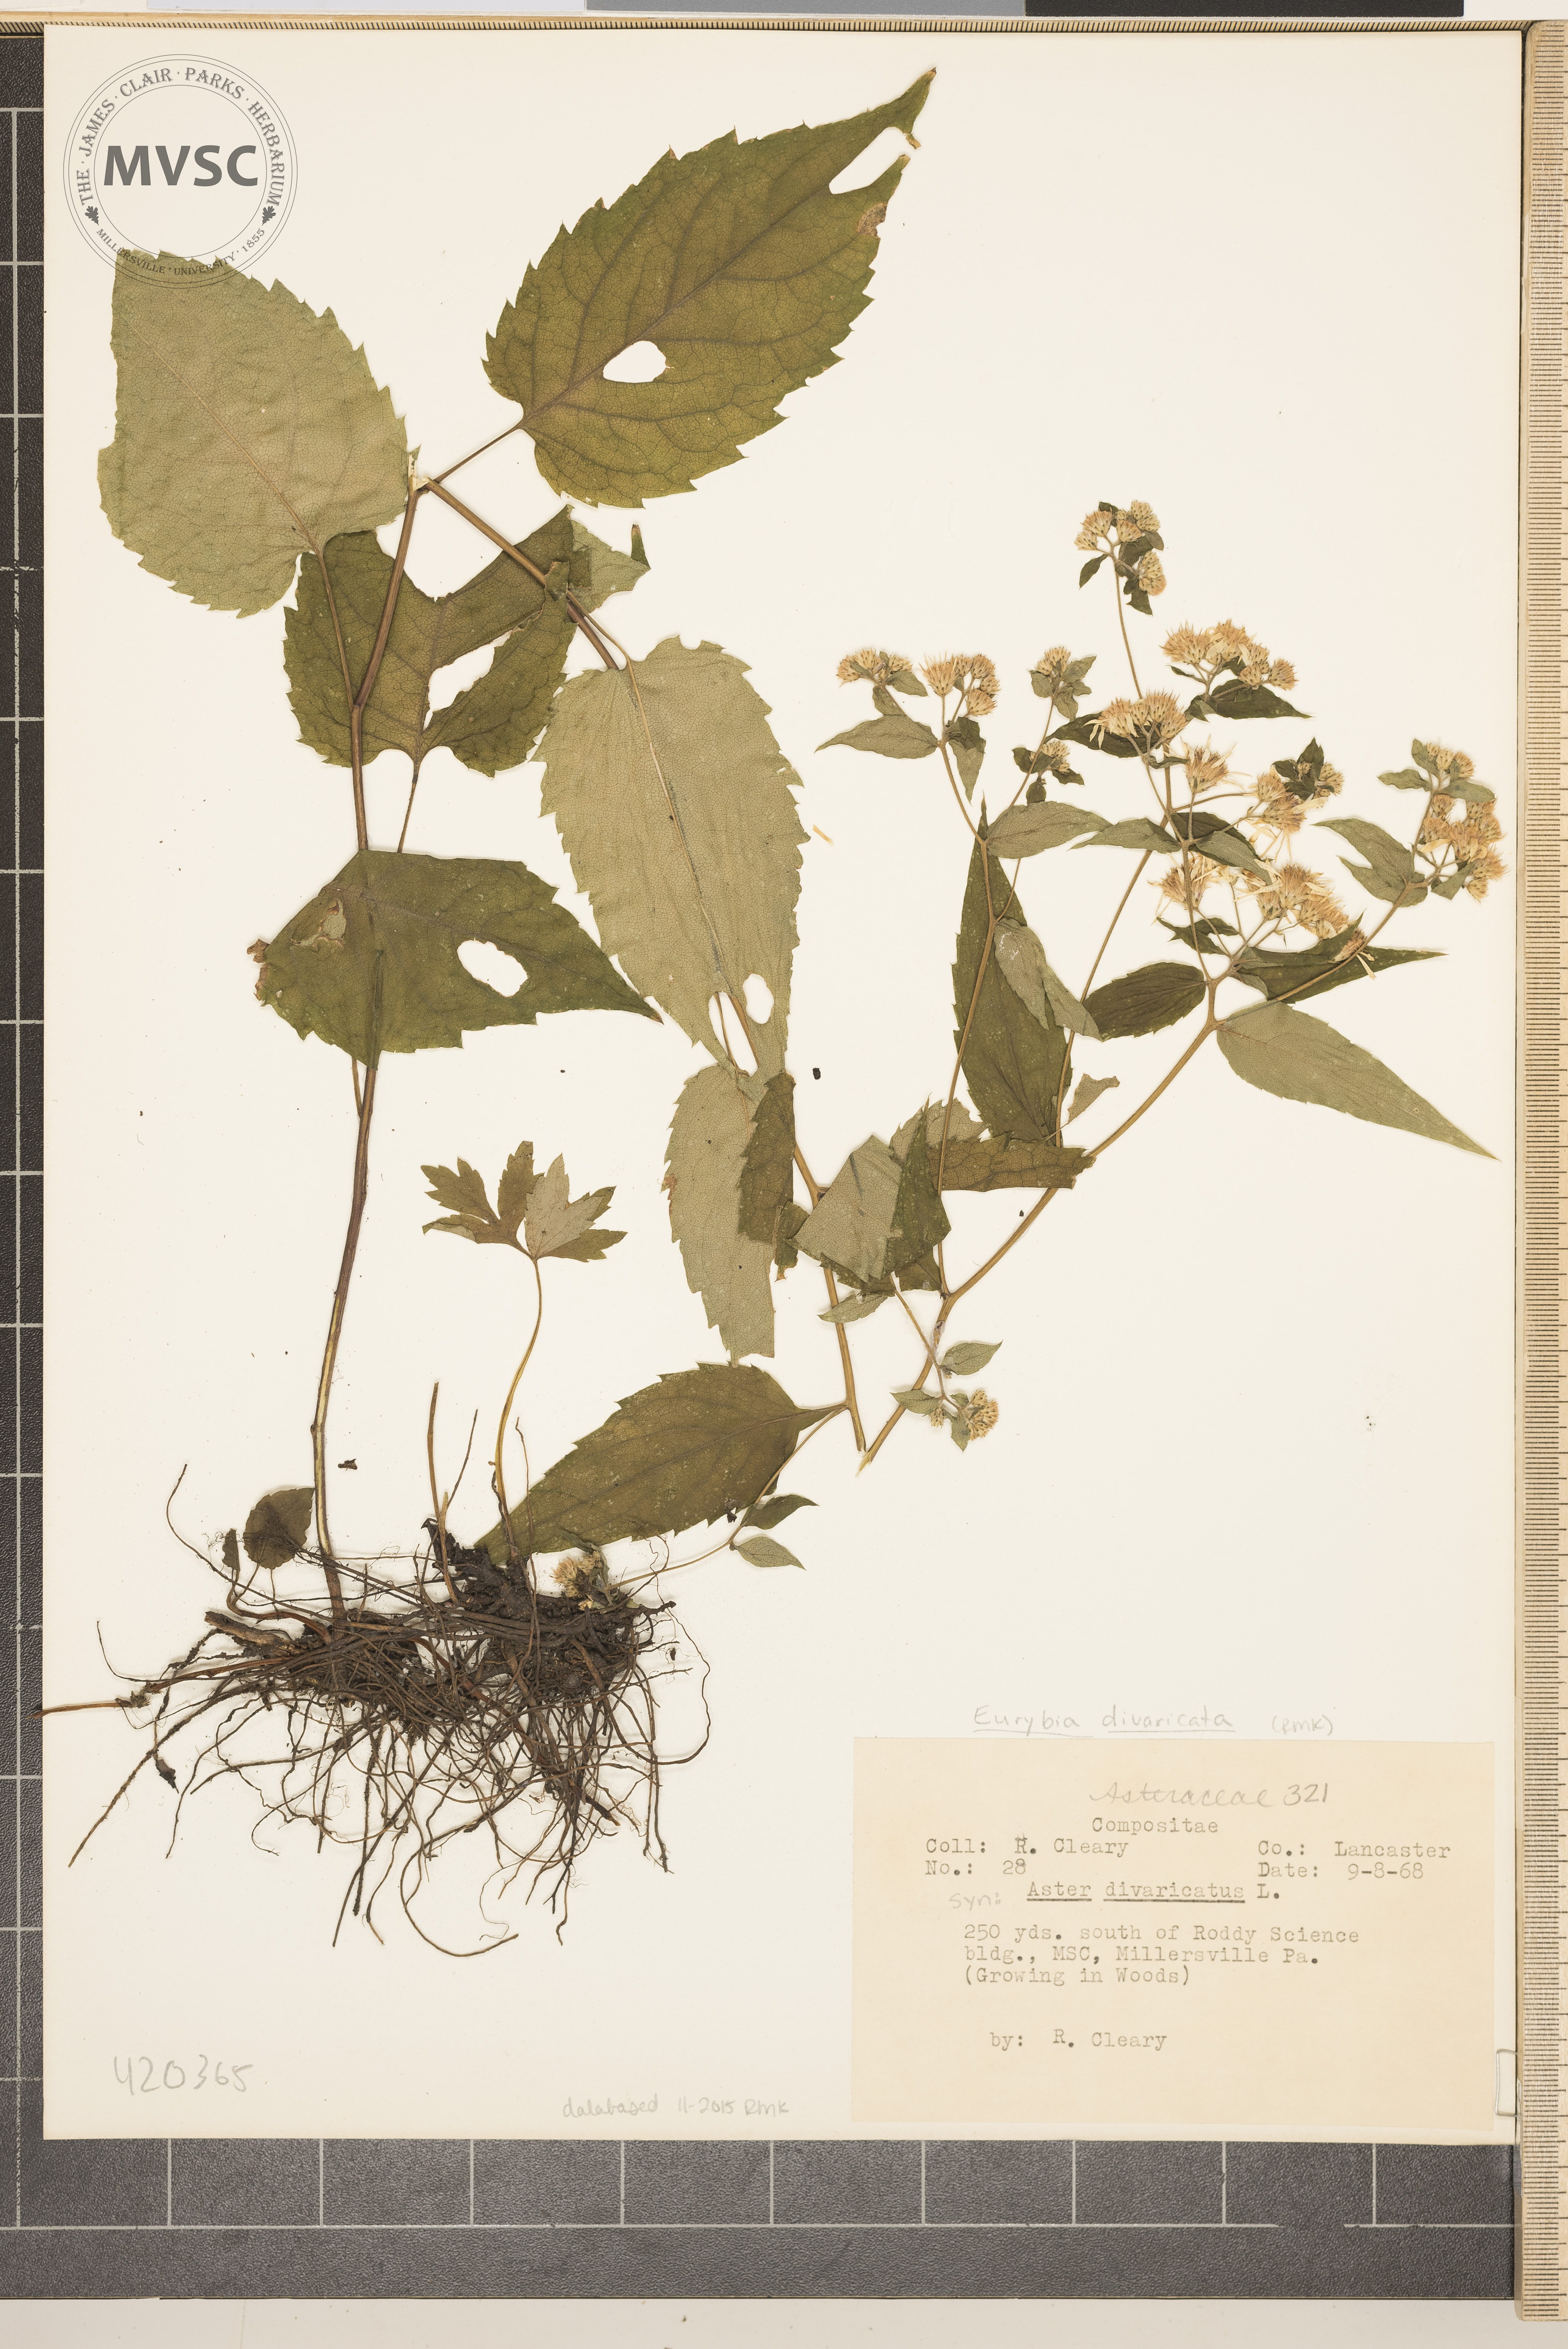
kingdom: Plantae
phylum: Tracheophyta
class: Magnoliopsida
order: Asterales
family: Asteraceae
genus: Eurybia
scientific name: Eurybia divaricata
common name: White wood aster
